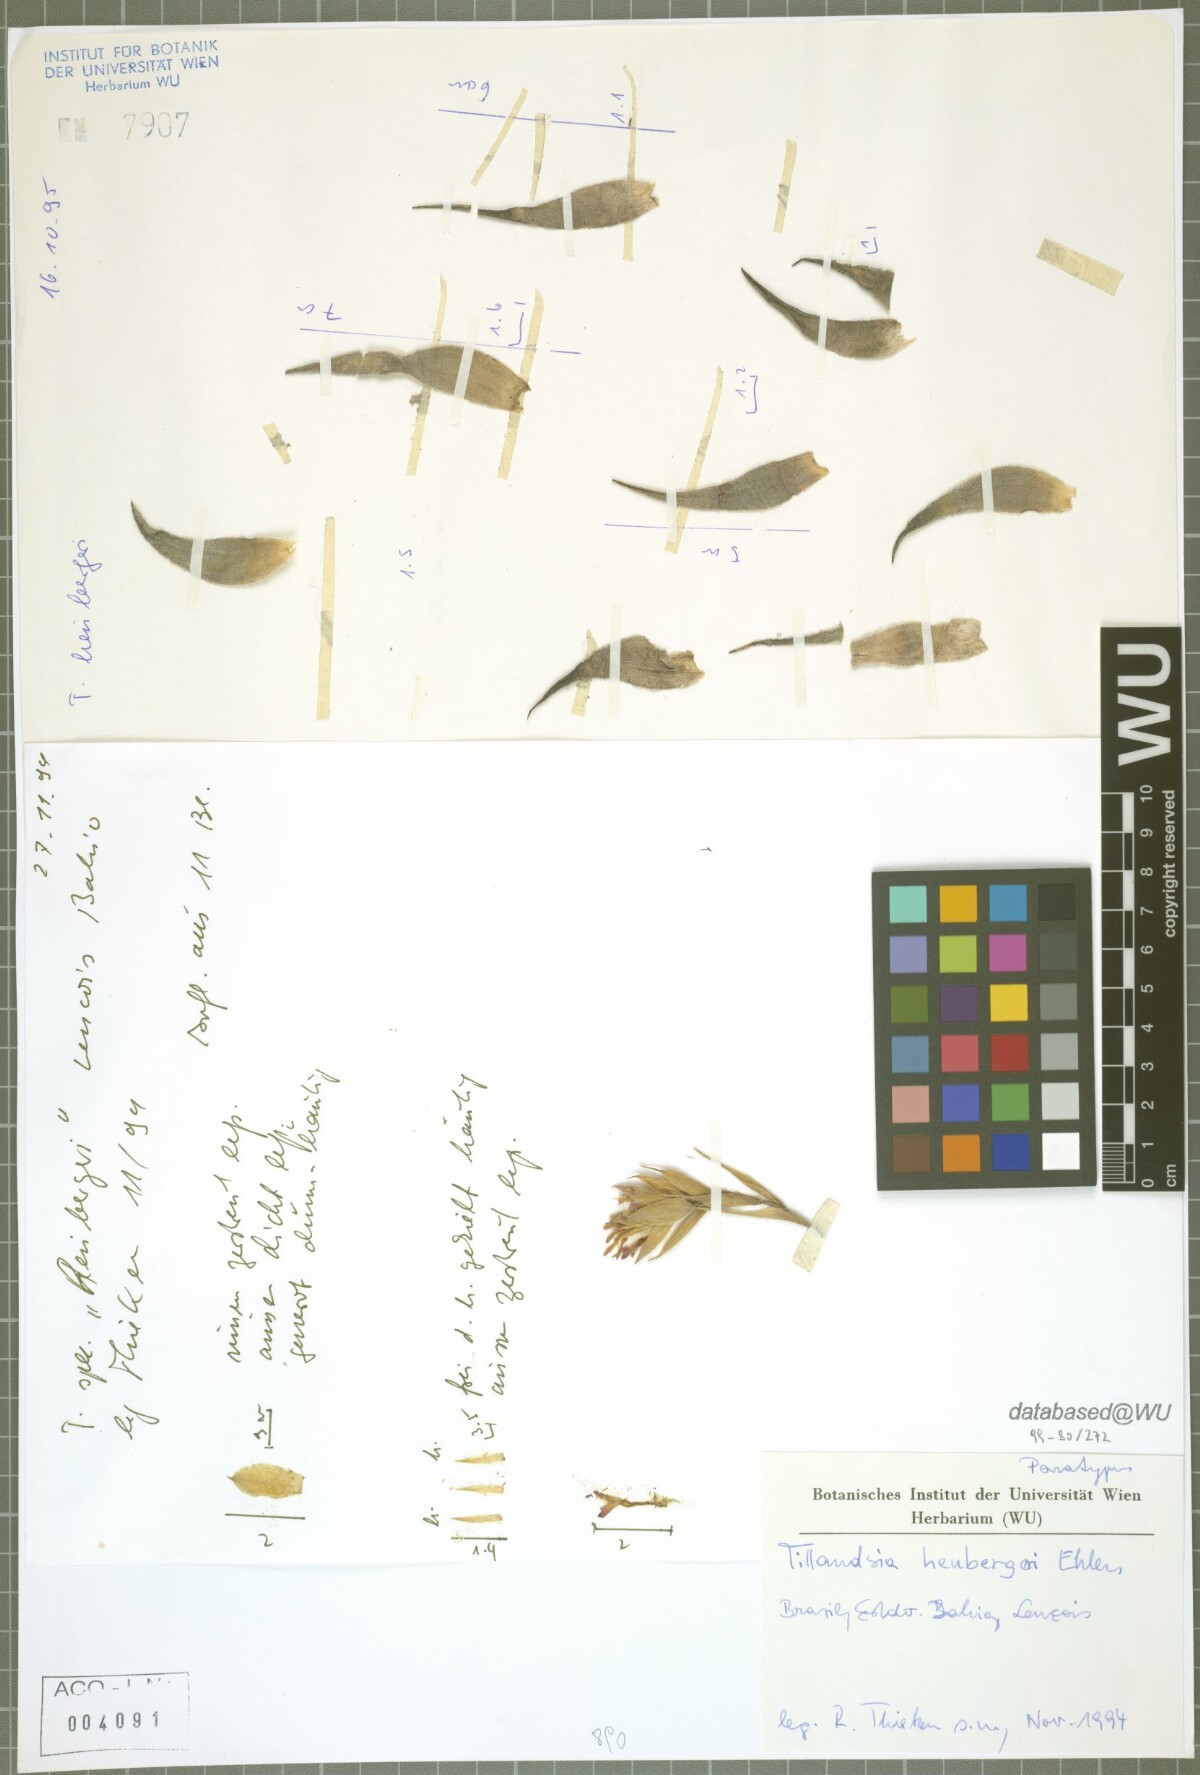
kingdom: Plantae
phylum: Tracheophyta
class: Liliopsida
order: Poales
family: Bromeliaceae
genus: Tillandsia
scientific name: Tillandsia heubergeri
